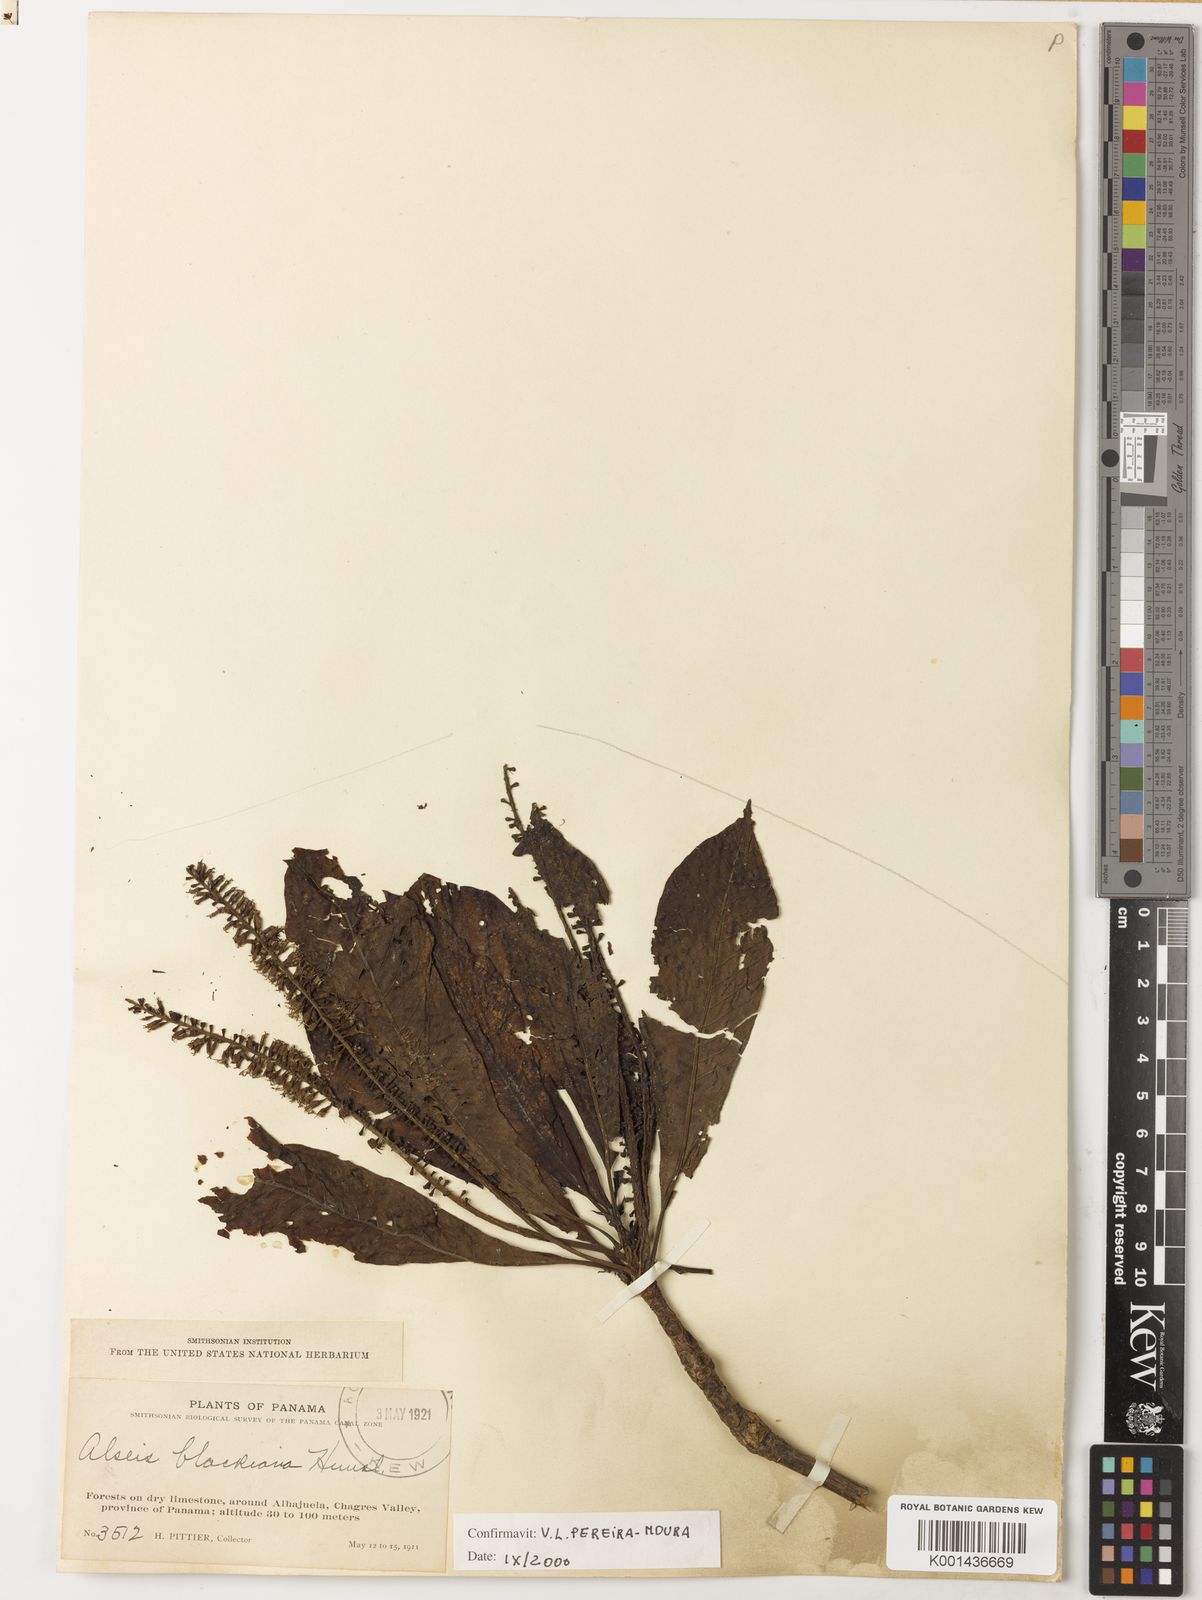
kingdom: Plantae
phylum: Tracheophyta
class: Magnoliopsida
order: Gentianales
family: Rubiaceae
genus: Alseis
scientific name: Alseis blackiana
